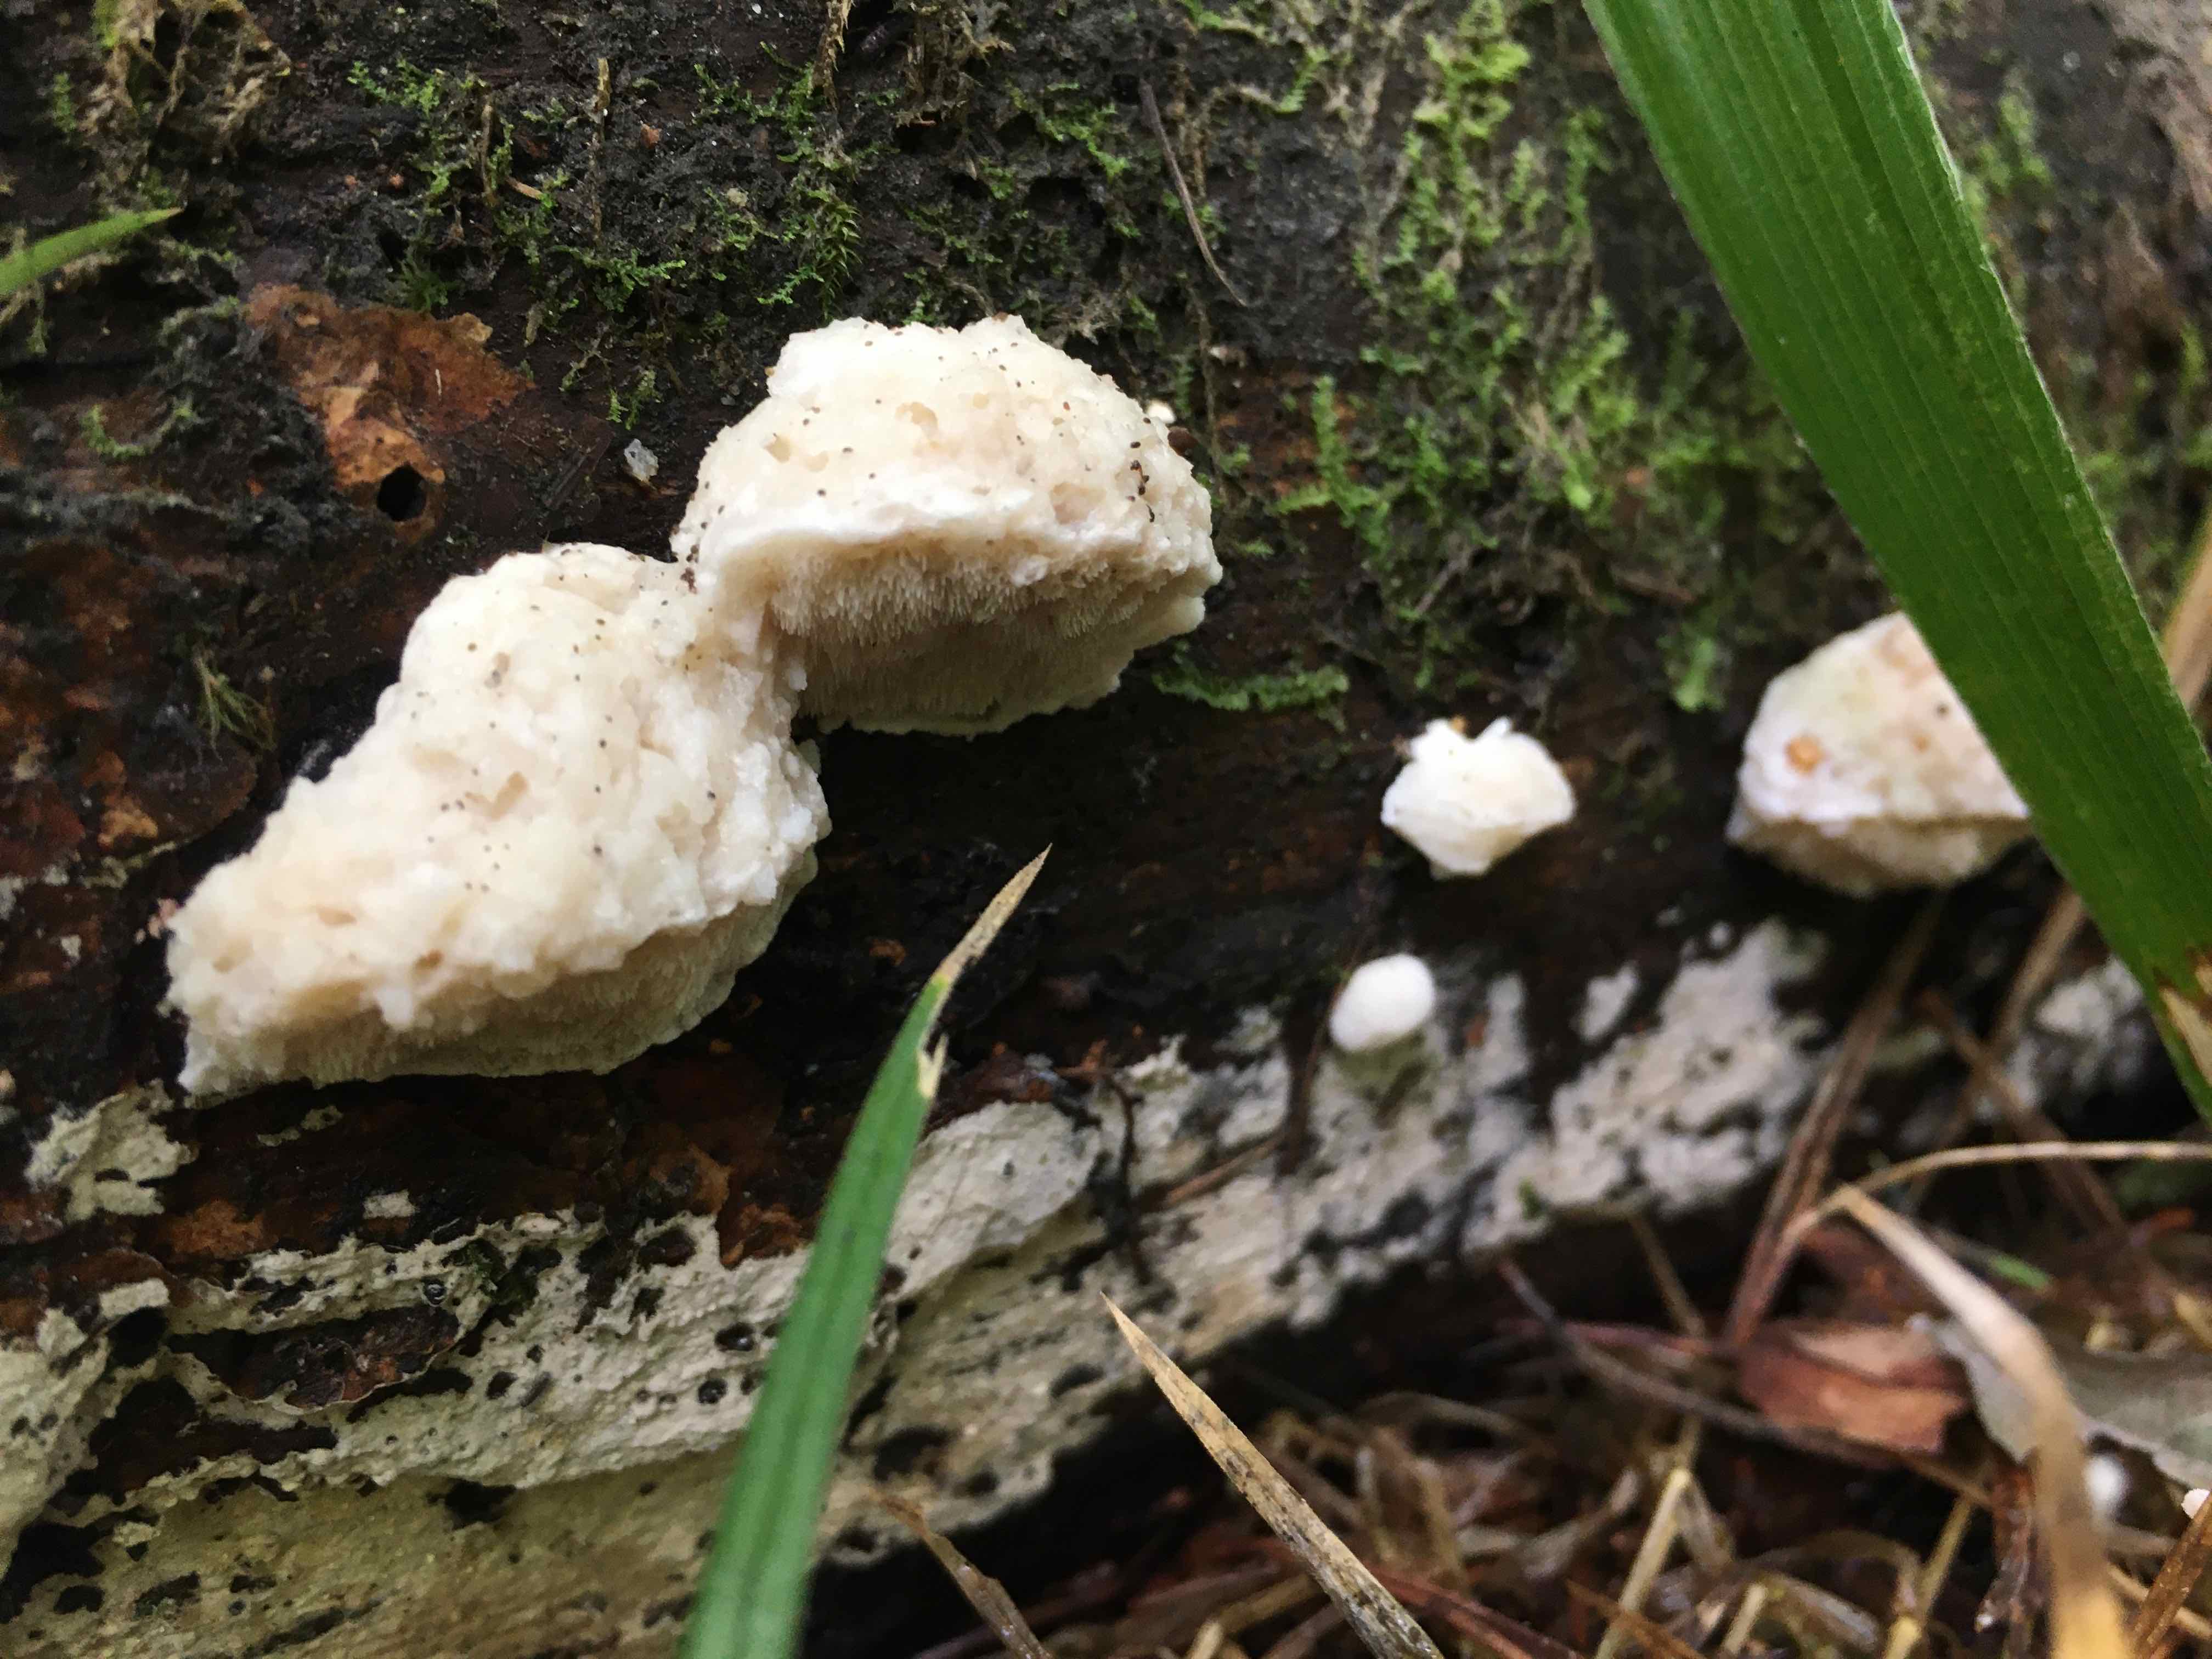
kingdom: Fungi
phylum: Basidiomycota
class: Agaricomycetes
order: Polyporales
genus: Amaropostia
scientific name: Amaropostia stiptica
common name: bitter kødporesvamp
